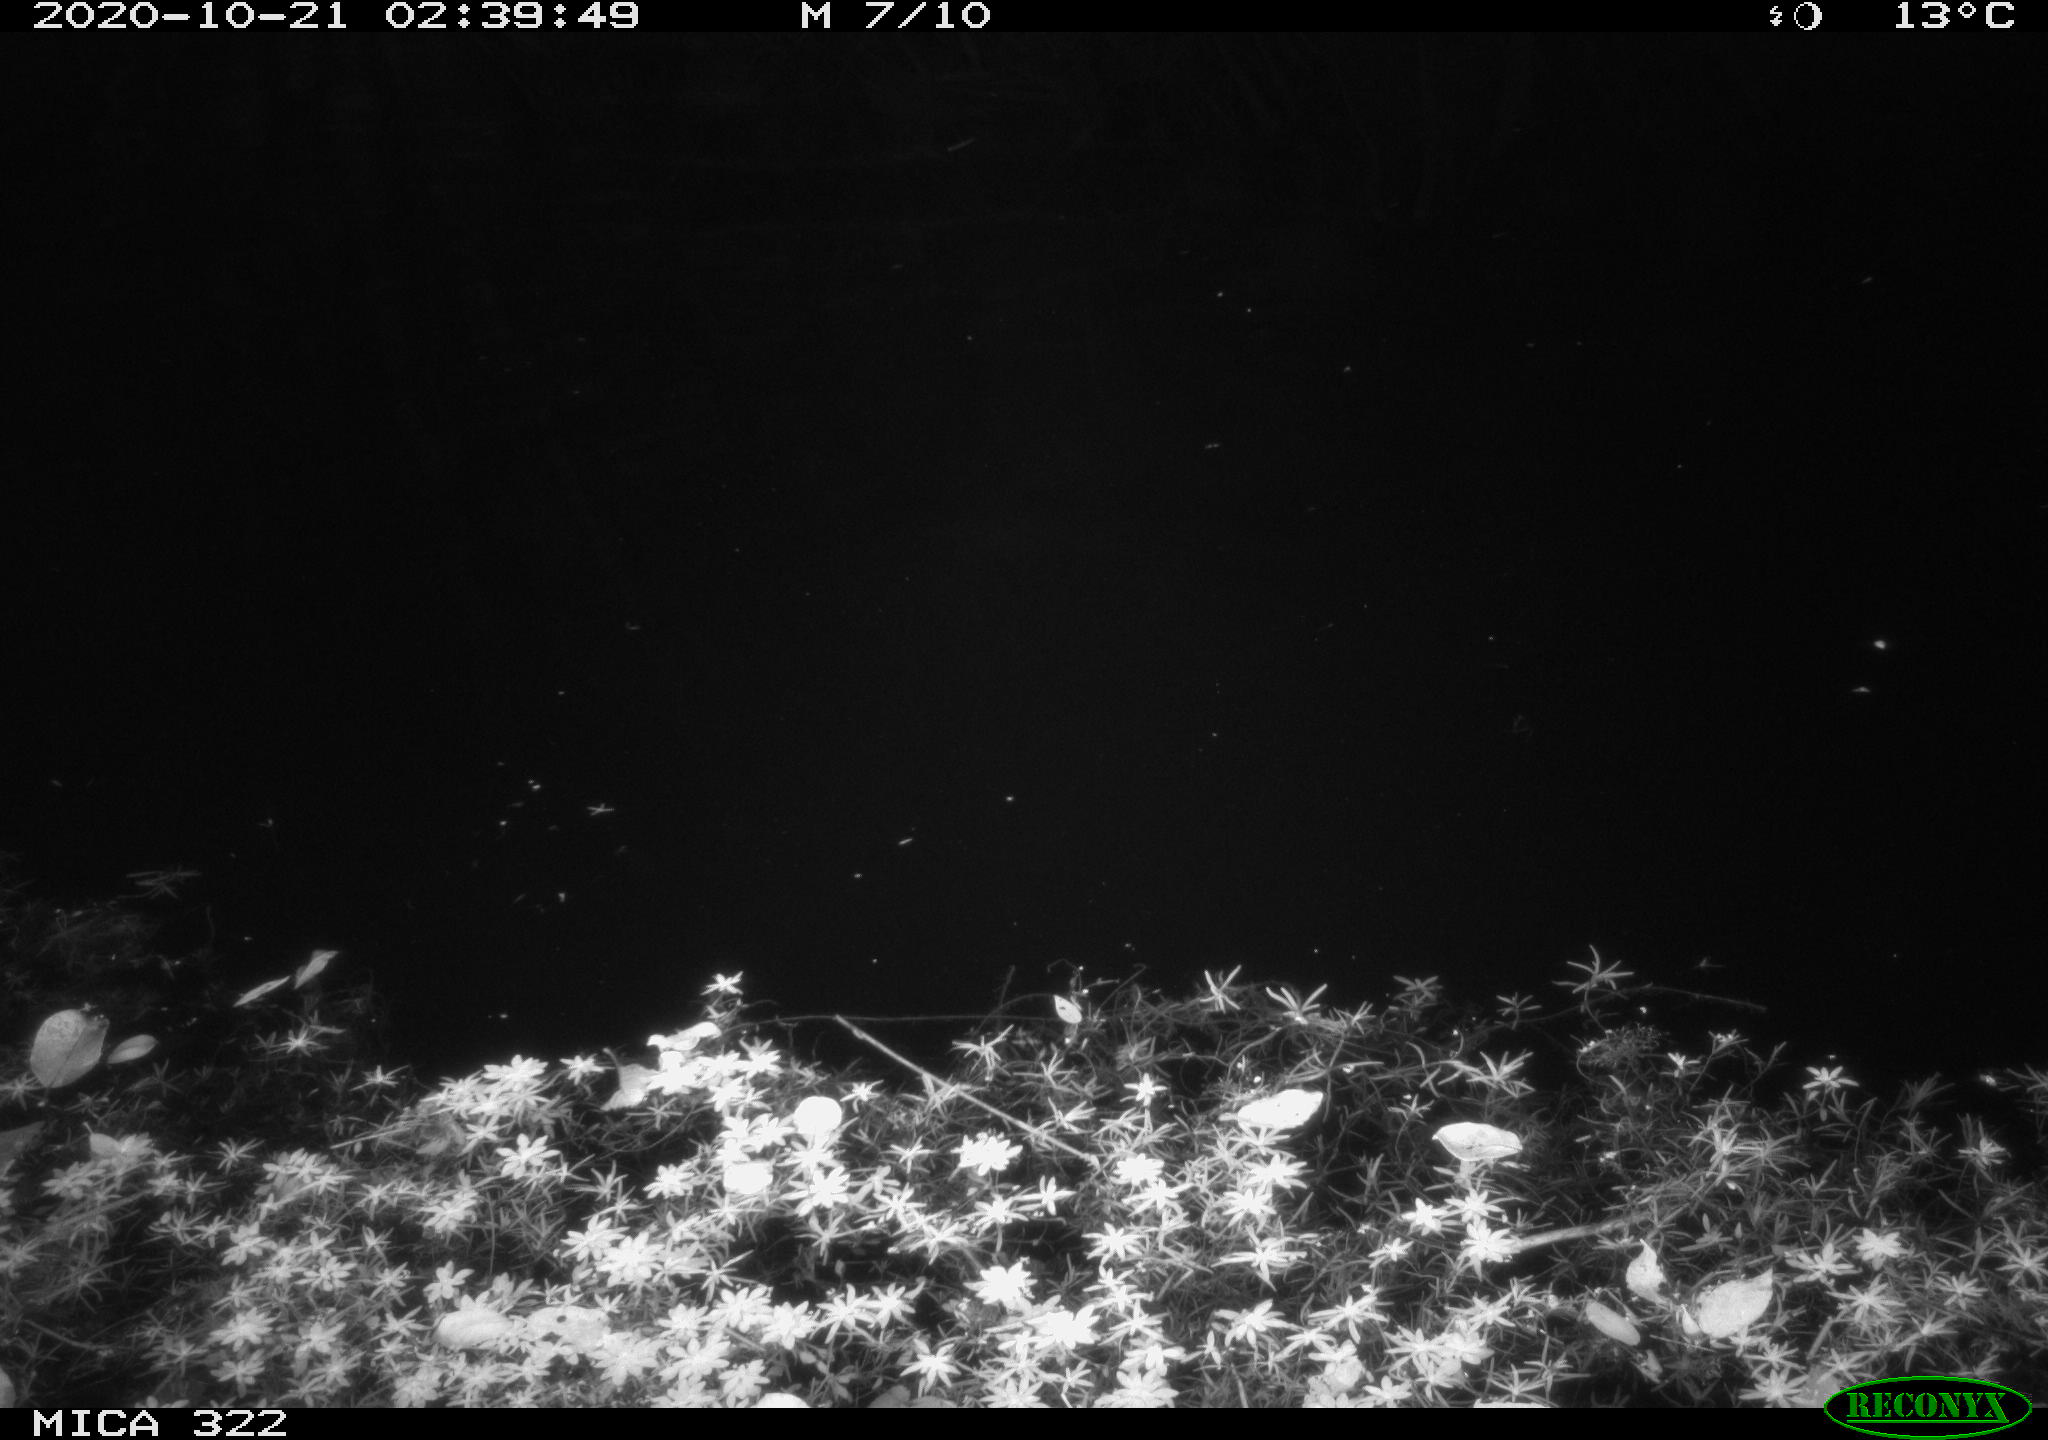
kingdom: Animalia
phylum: Chordata
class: Mammalia
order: Rodentia
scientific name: Rodentia
